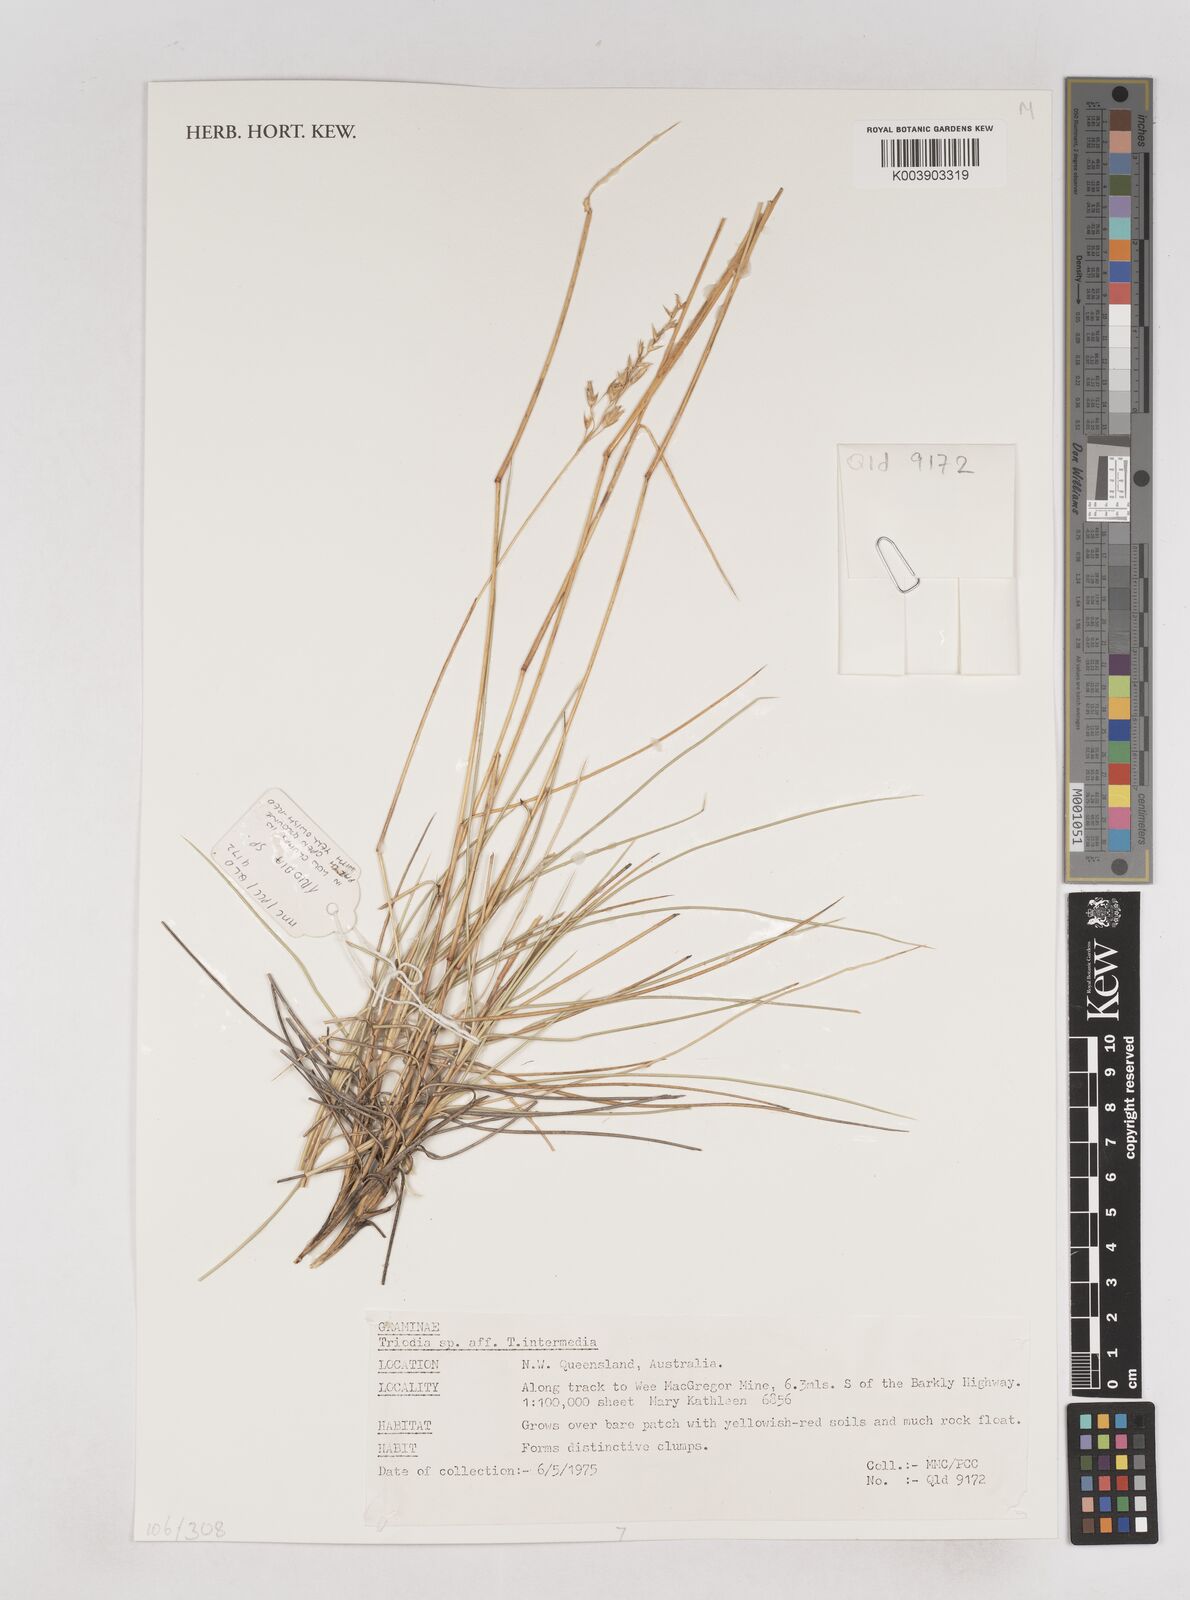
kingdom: Plantae
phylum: Tracheophyta
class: Liliopsida
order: Poales
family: Poaceae
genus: Triodia
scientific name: Triodia intermedia
